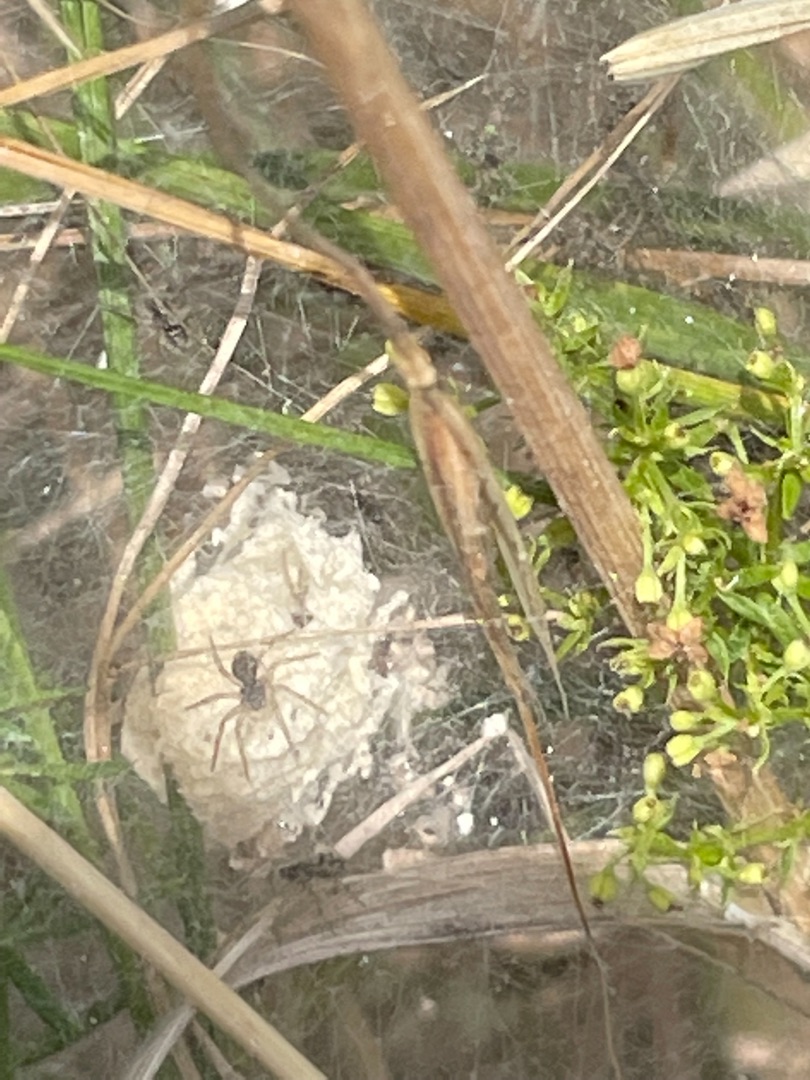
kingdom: Animalia
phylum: Arthropoda
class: Arachnida
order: Araneae
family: Pisauridae
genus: Pisaura
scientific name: Pisaura mirabilis
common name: Almindelig rovedderkop
